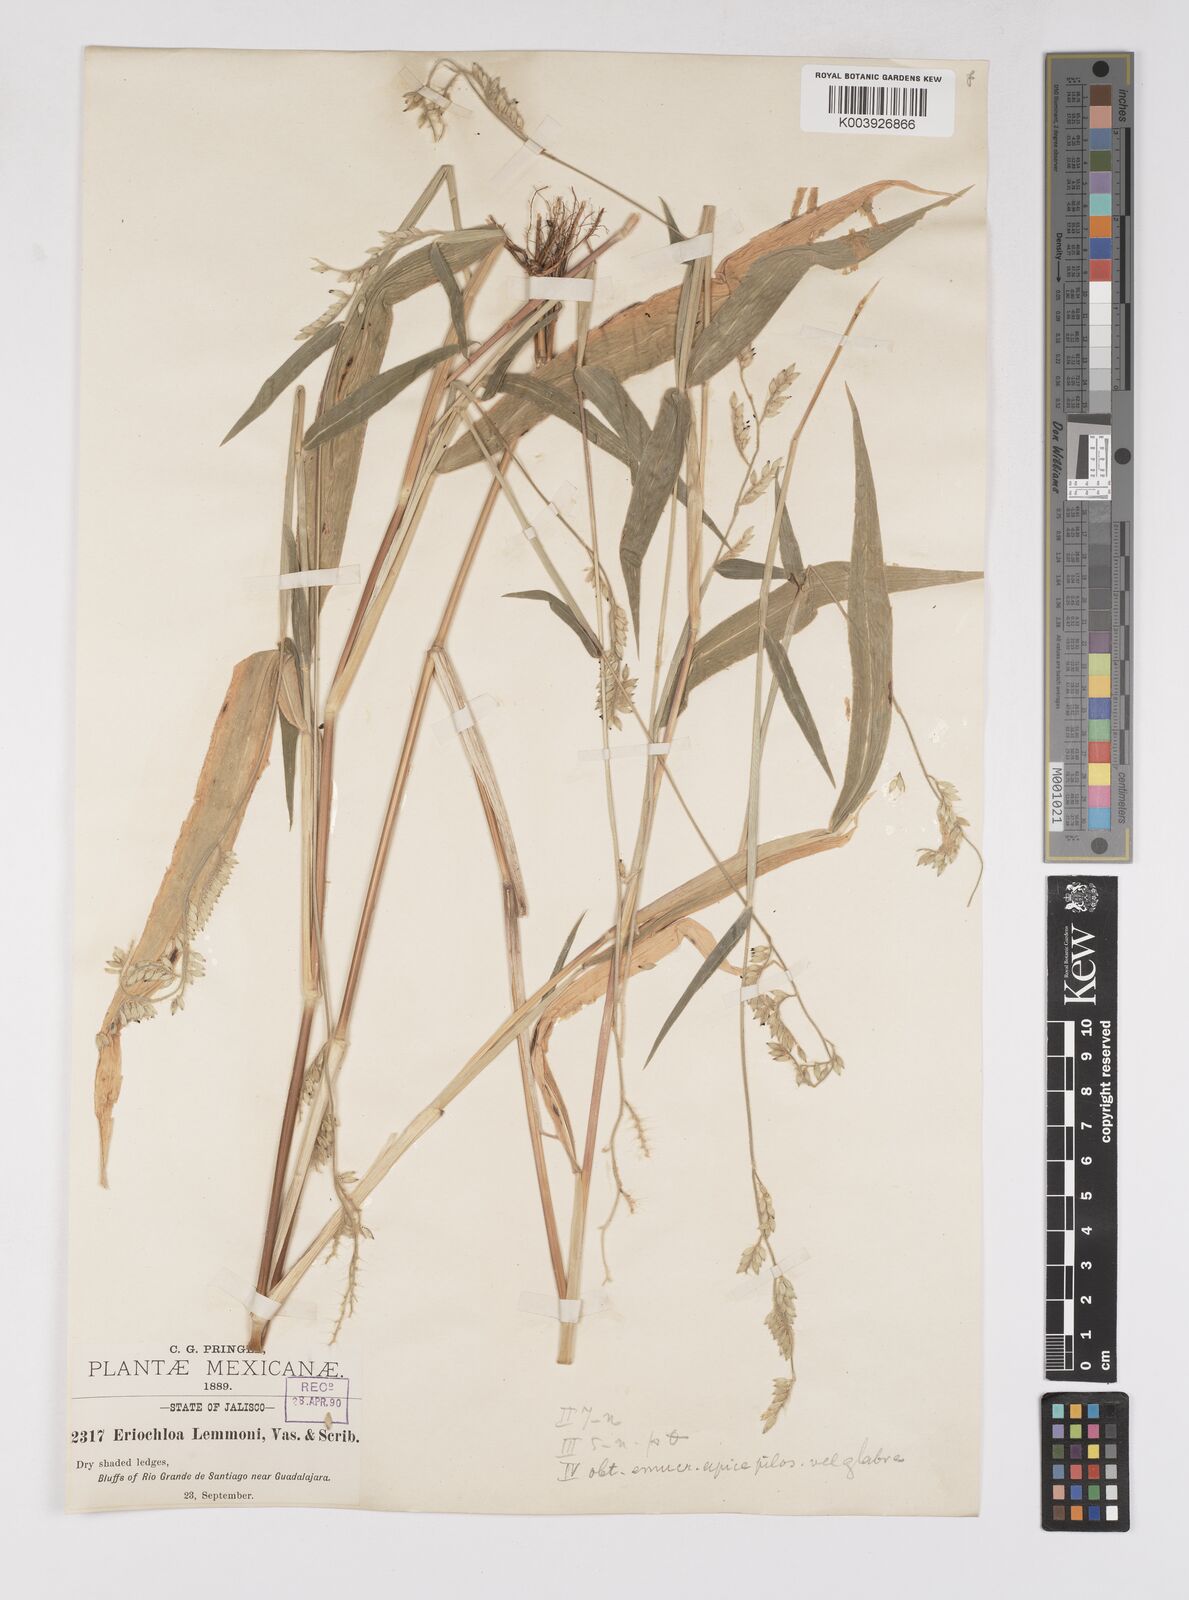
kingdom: Plantae
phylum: Tracheophyta
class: Liliopsida
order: Poales
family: Poaceae
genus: Eriochloa
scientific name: Eriochloa lemmonii
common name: Canyon cup grass
